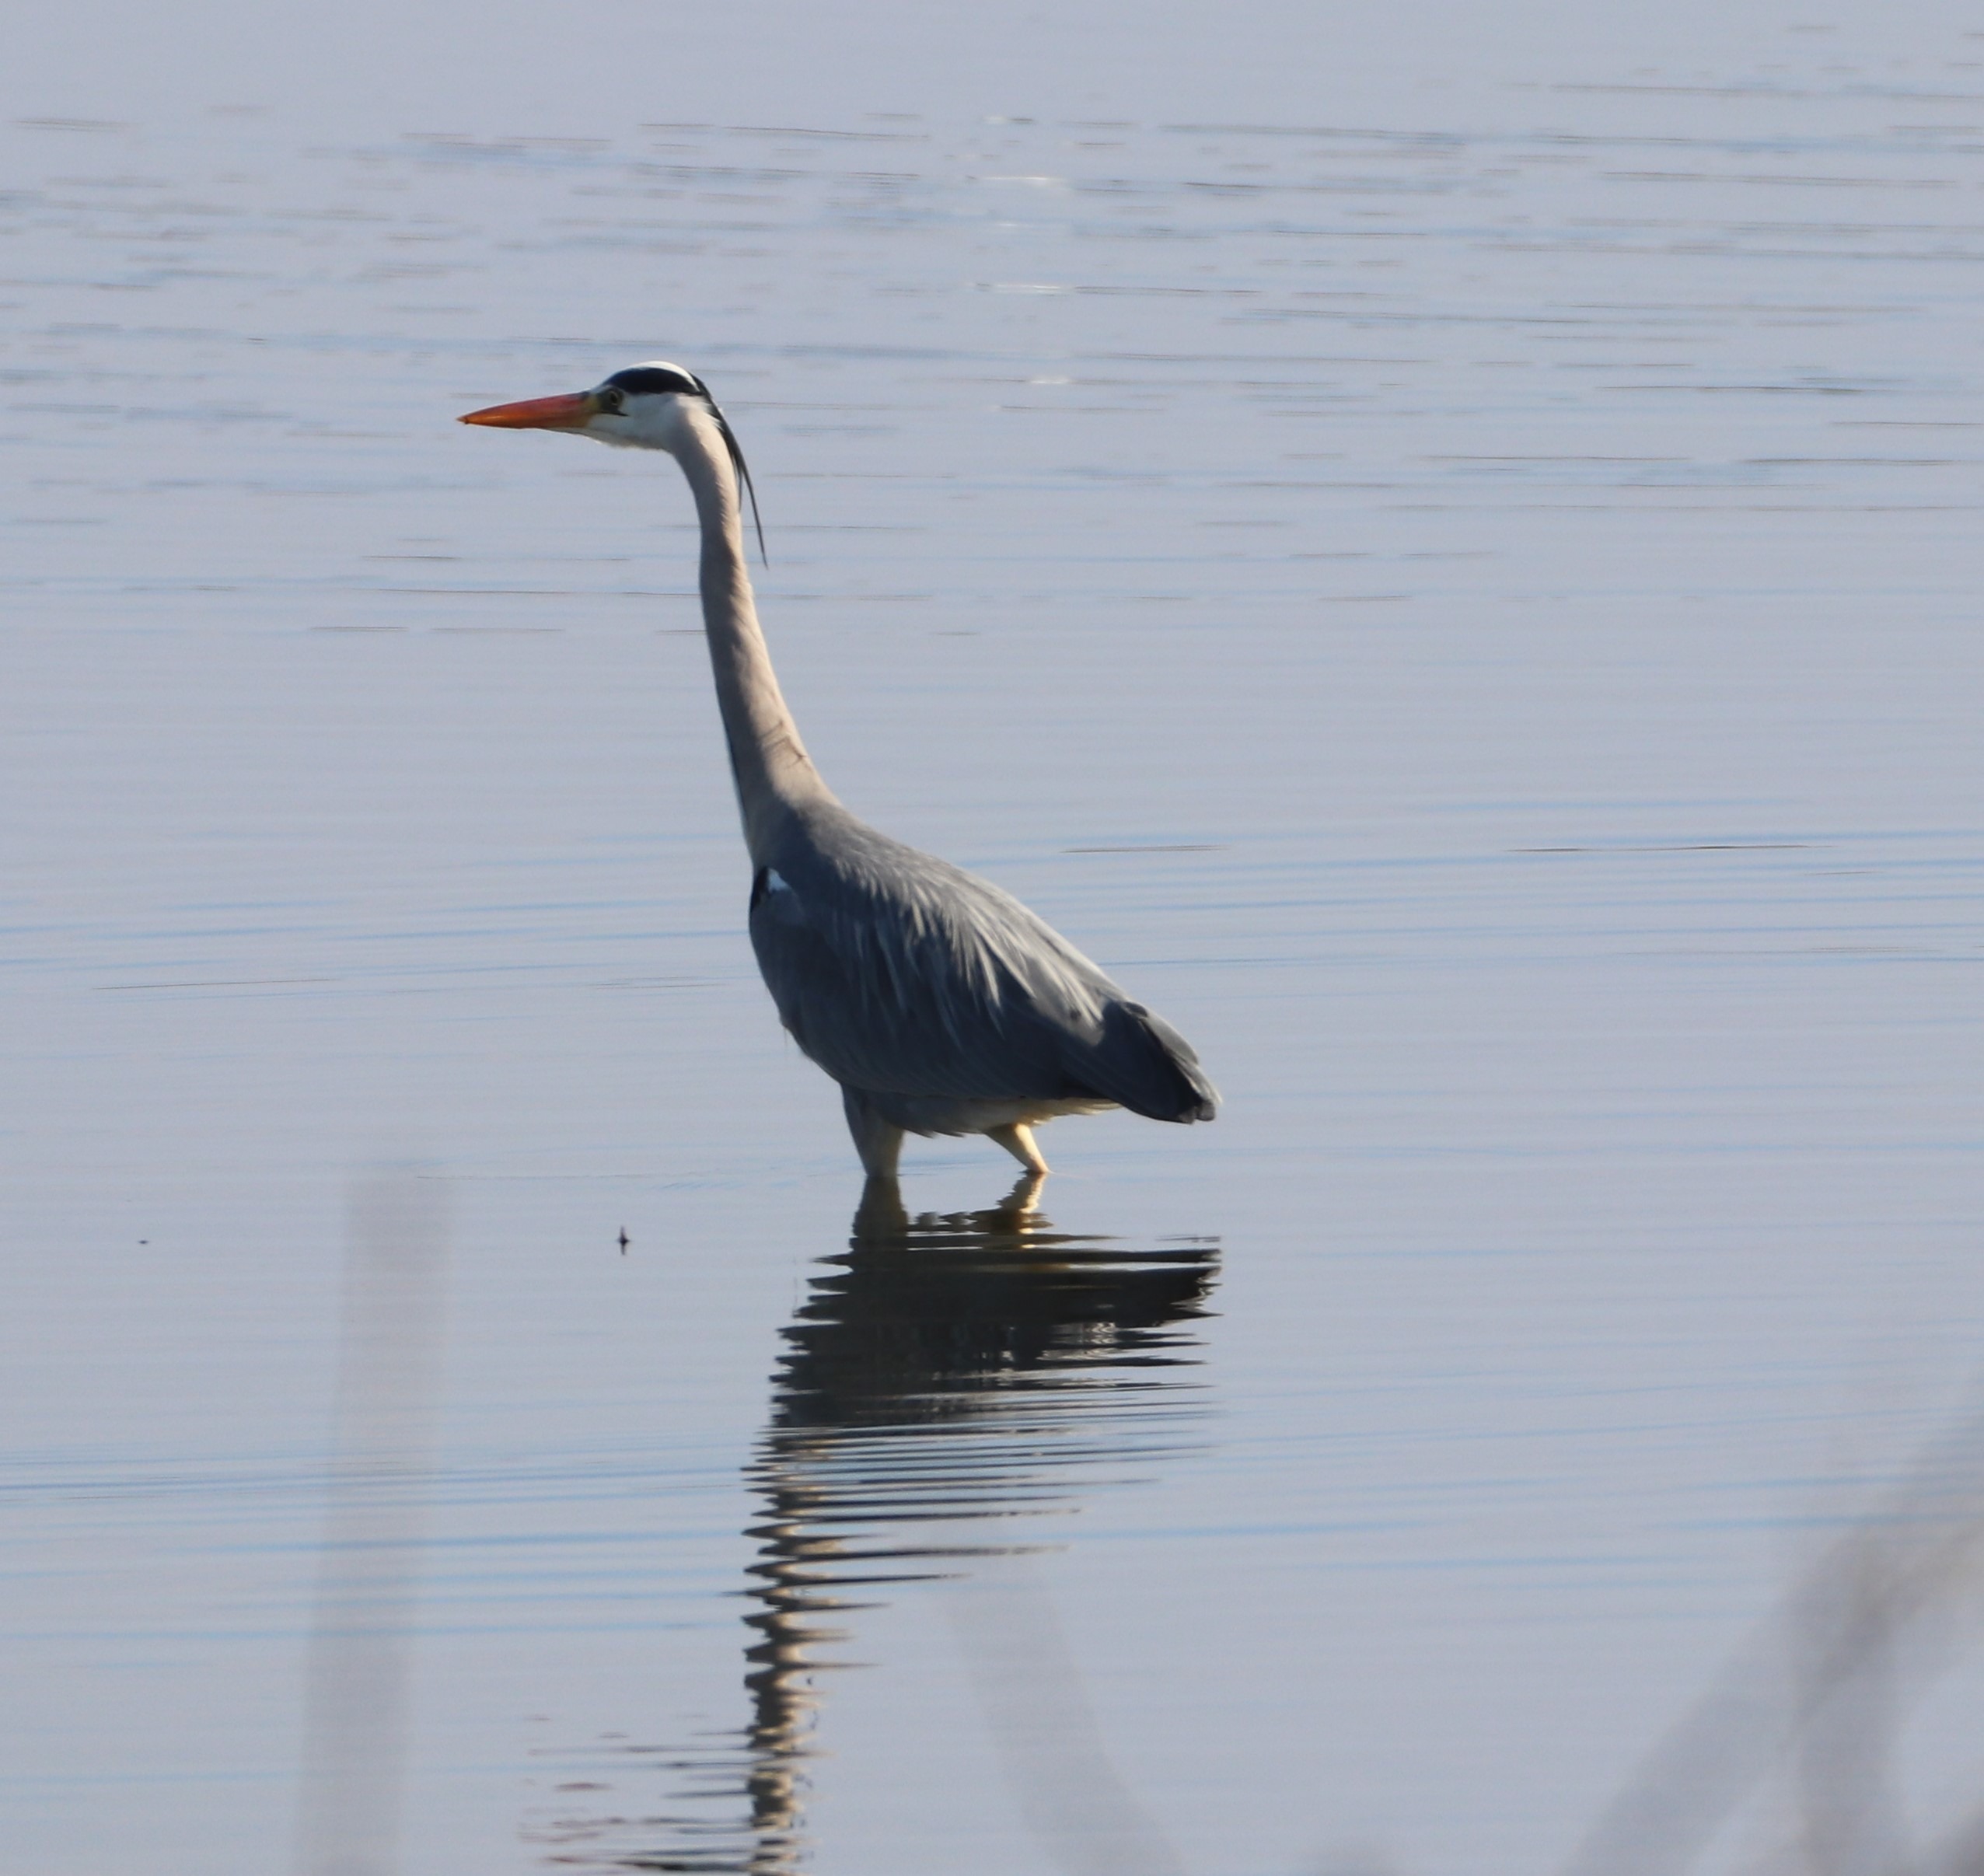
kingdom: Animalia
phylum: Chordata
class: Aves
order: Pelecaniformes
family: Ardeidae
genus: Ardea
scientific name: Ardea cinerea
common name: Fiskehejre
